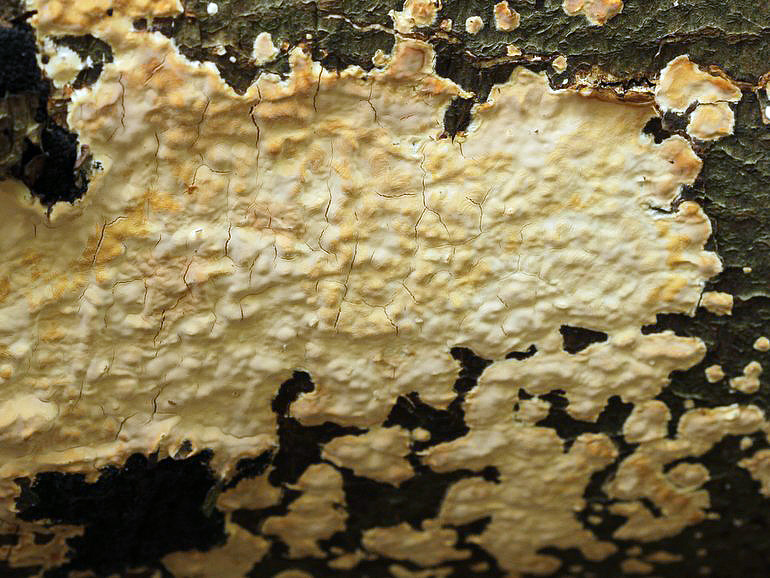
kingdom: Fungi
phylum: Basidiomycota
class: Agaricomycetes
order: Russulales
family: Peniophoraceae
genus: Scytinostroma
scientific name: Scytinostroma
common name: naftalinskorpe
